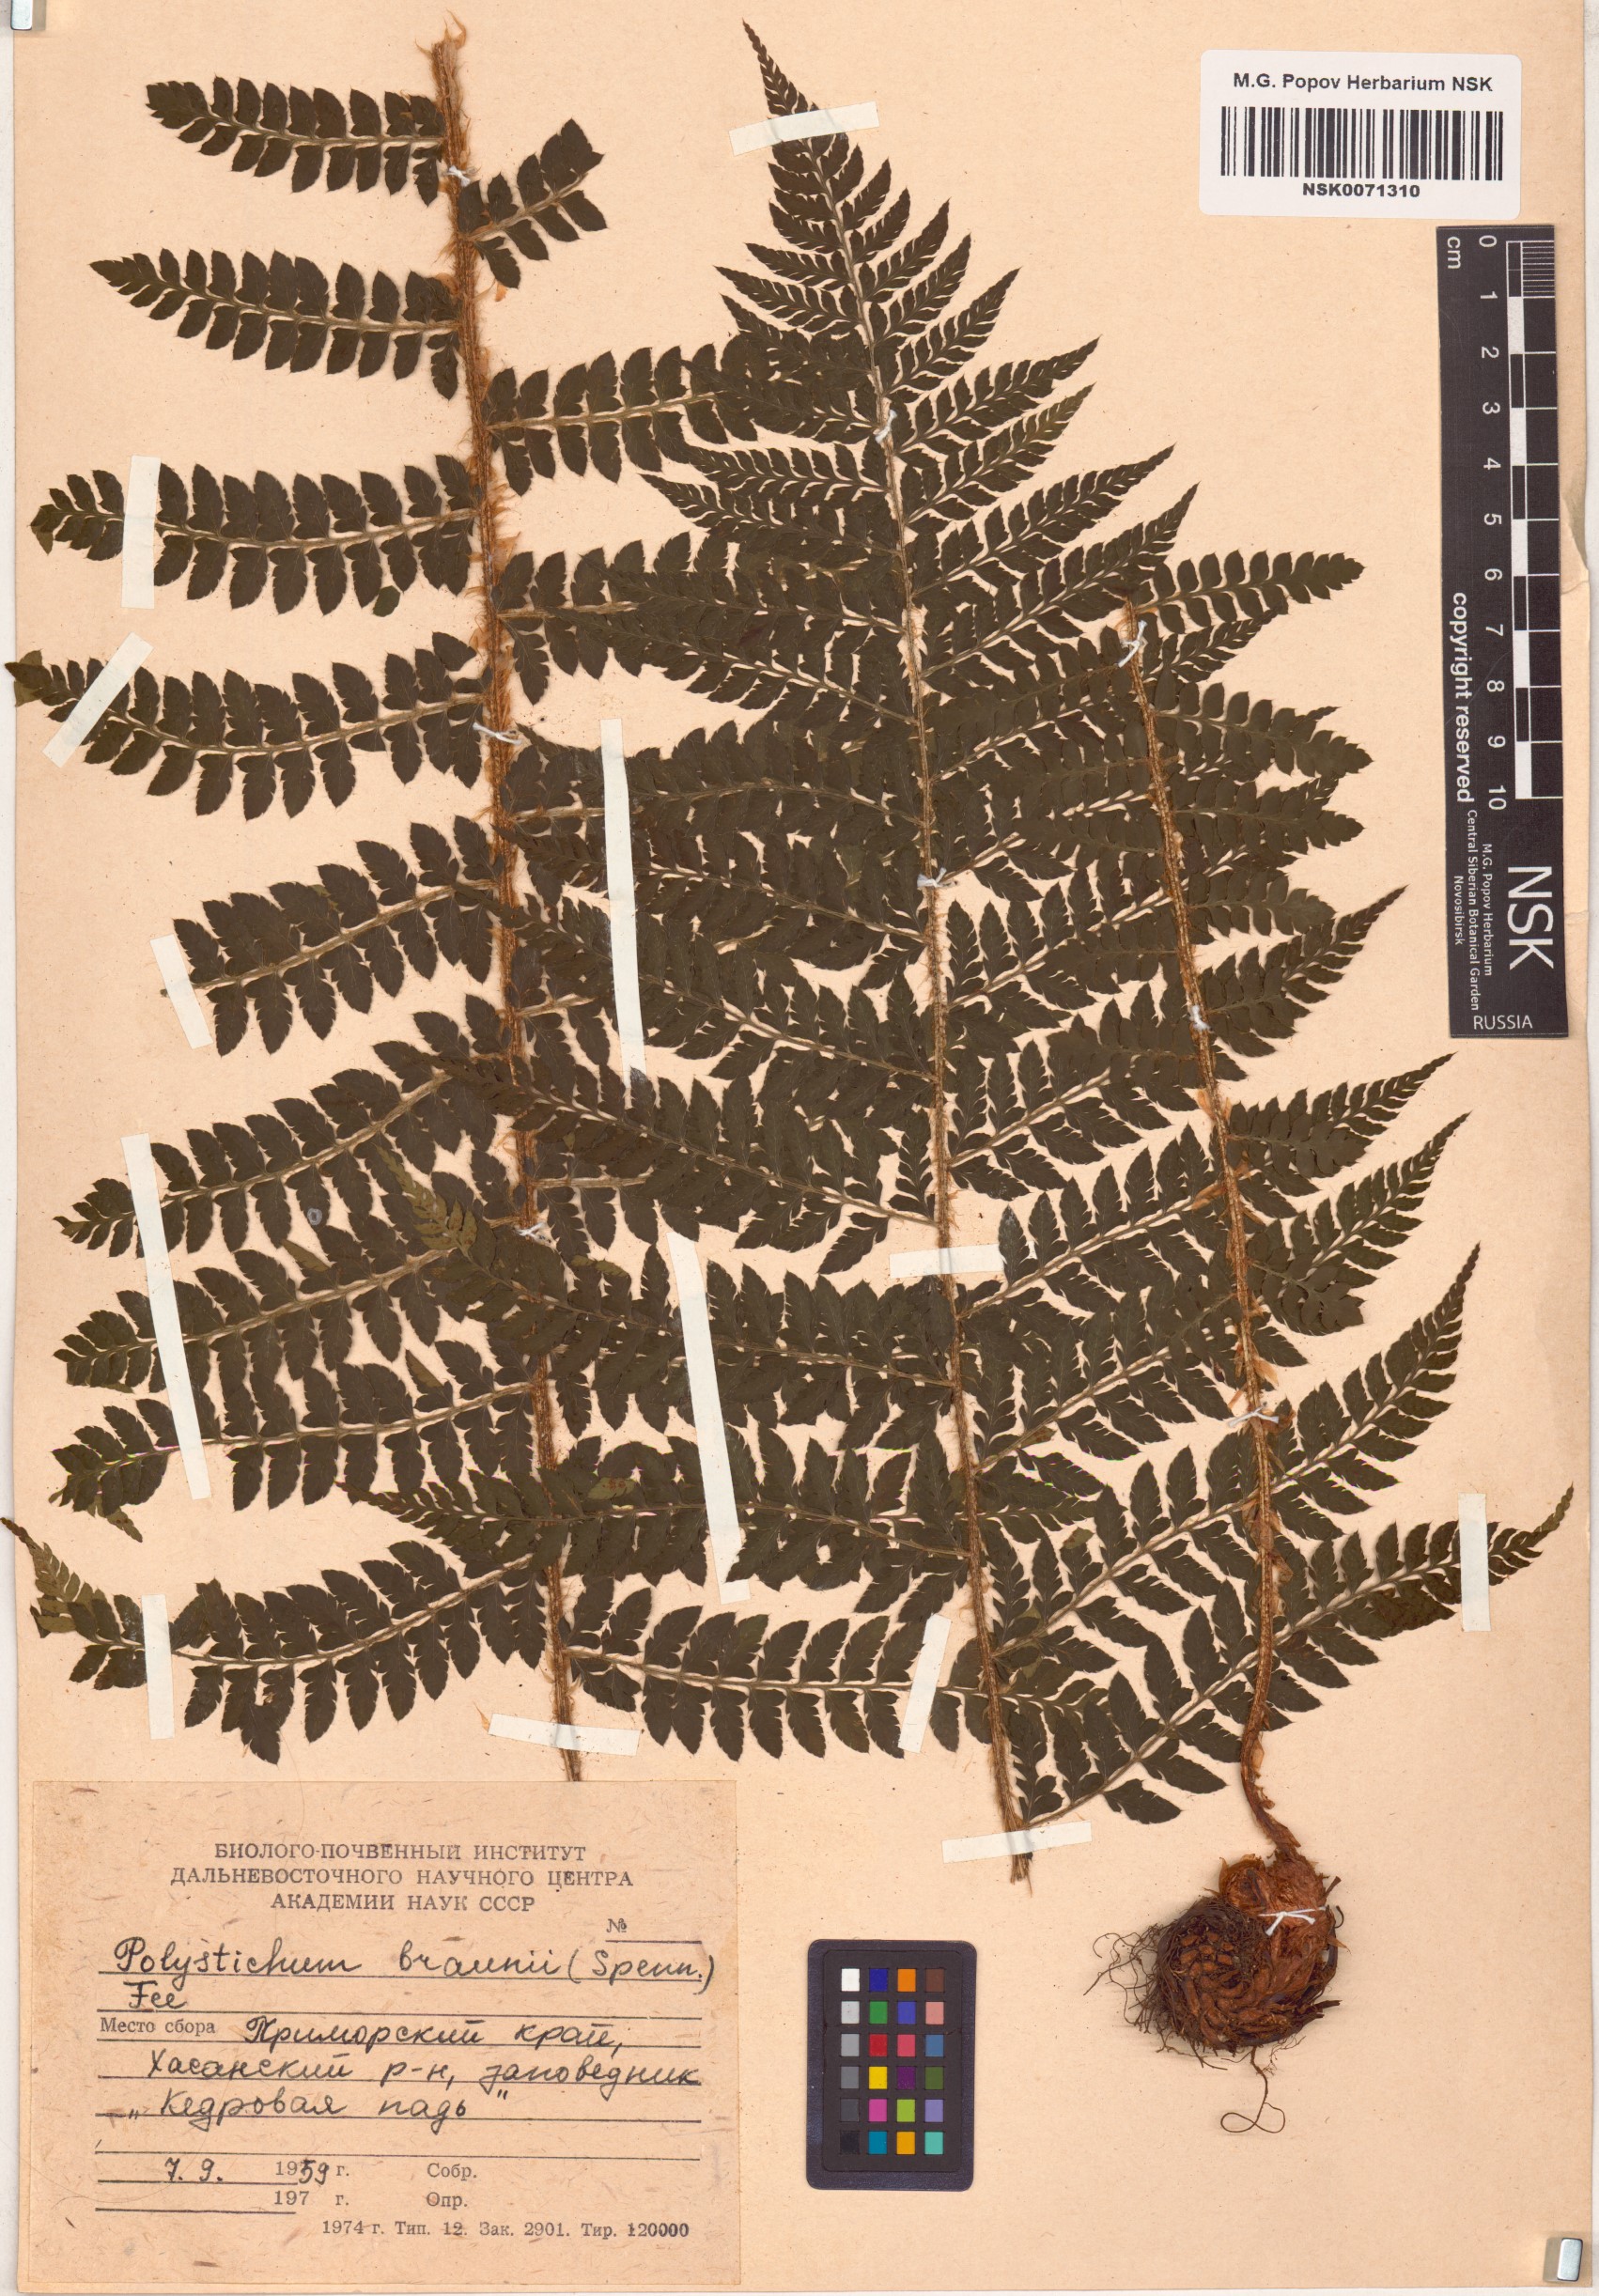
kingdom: Plantae
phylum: Tracheophyta
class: Polypodiopsida
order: Polypodiales
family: Dryopteridaceae
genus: Polystichum
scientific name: Polystichum braunii
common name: Braun's holly fern
